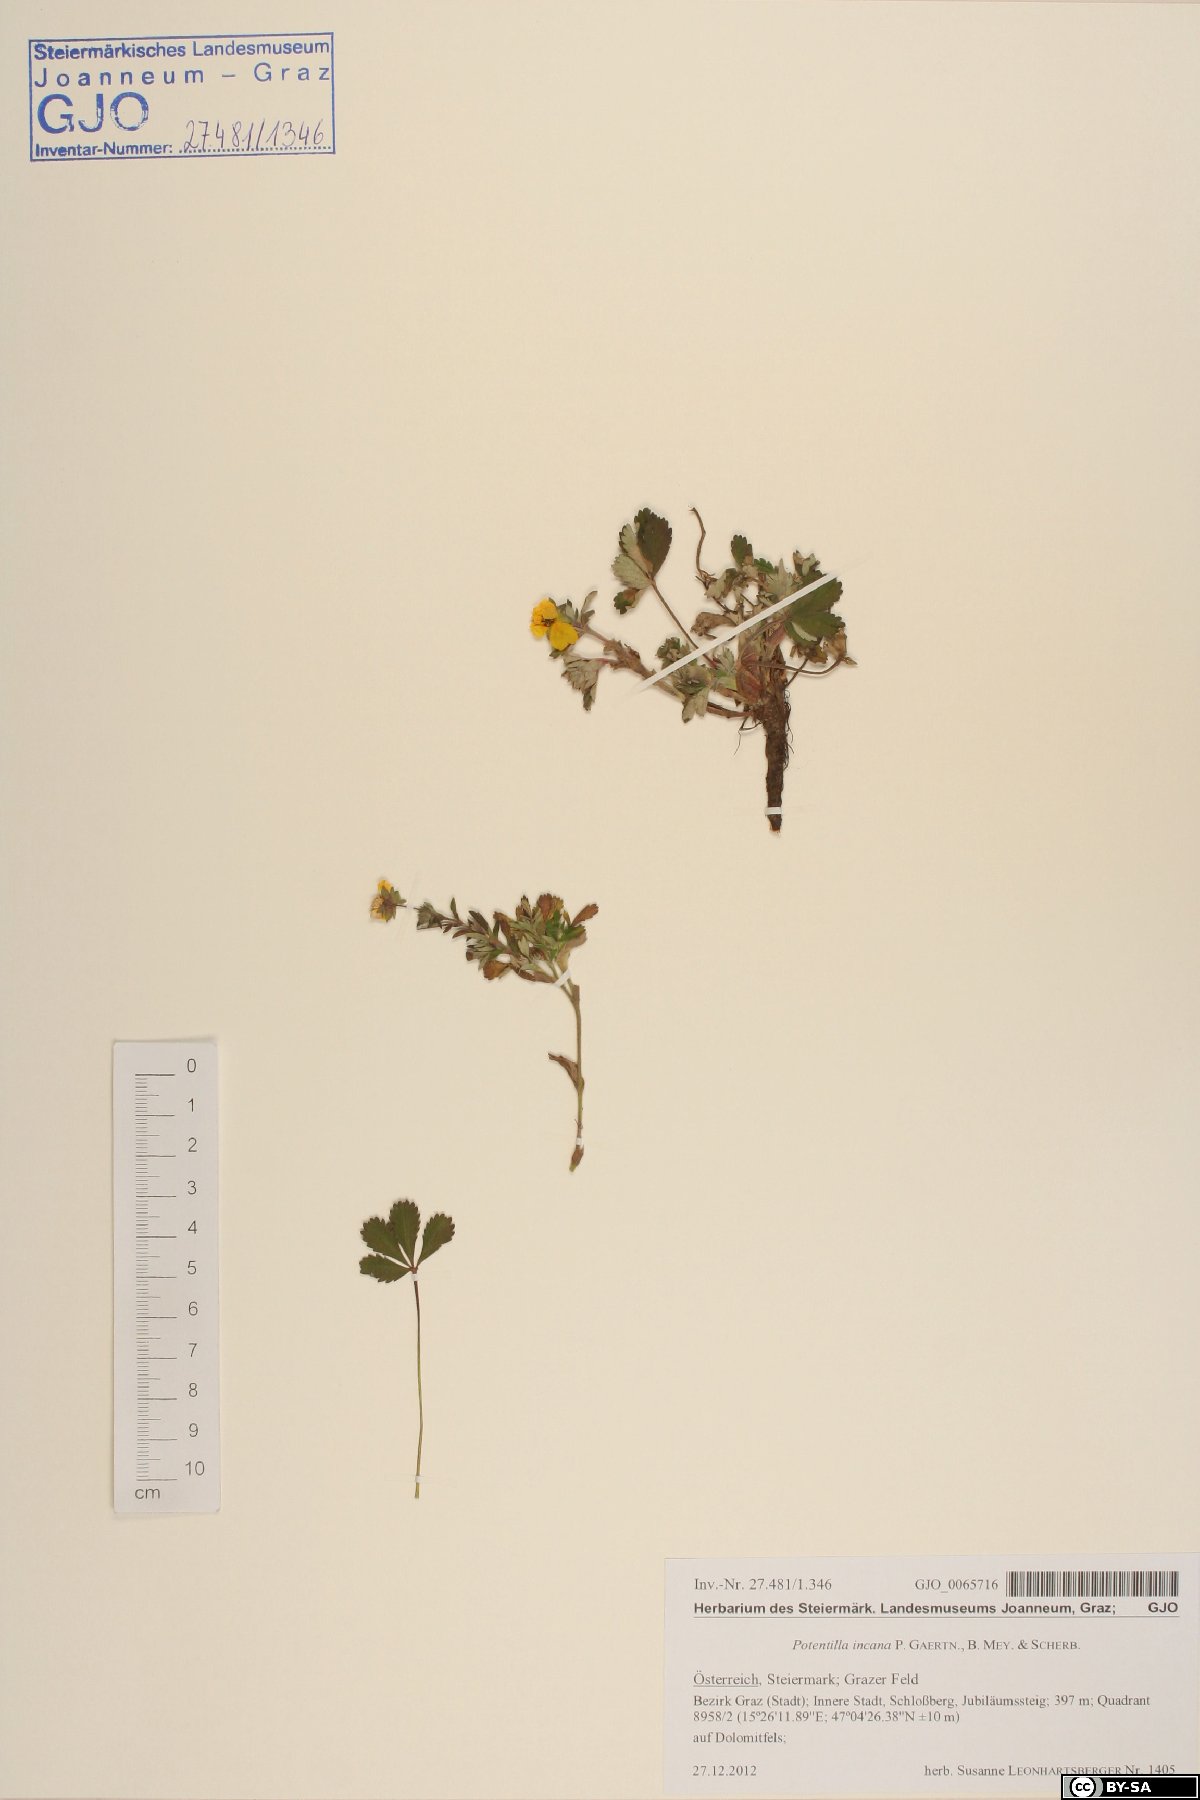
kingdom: Plantae
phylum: Tracheophyta
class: Magnoliopsida
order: Rosales
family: Rosaceae
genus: Potentilla
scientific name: Potentilla cinerea
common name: Ashy cinquefoil
